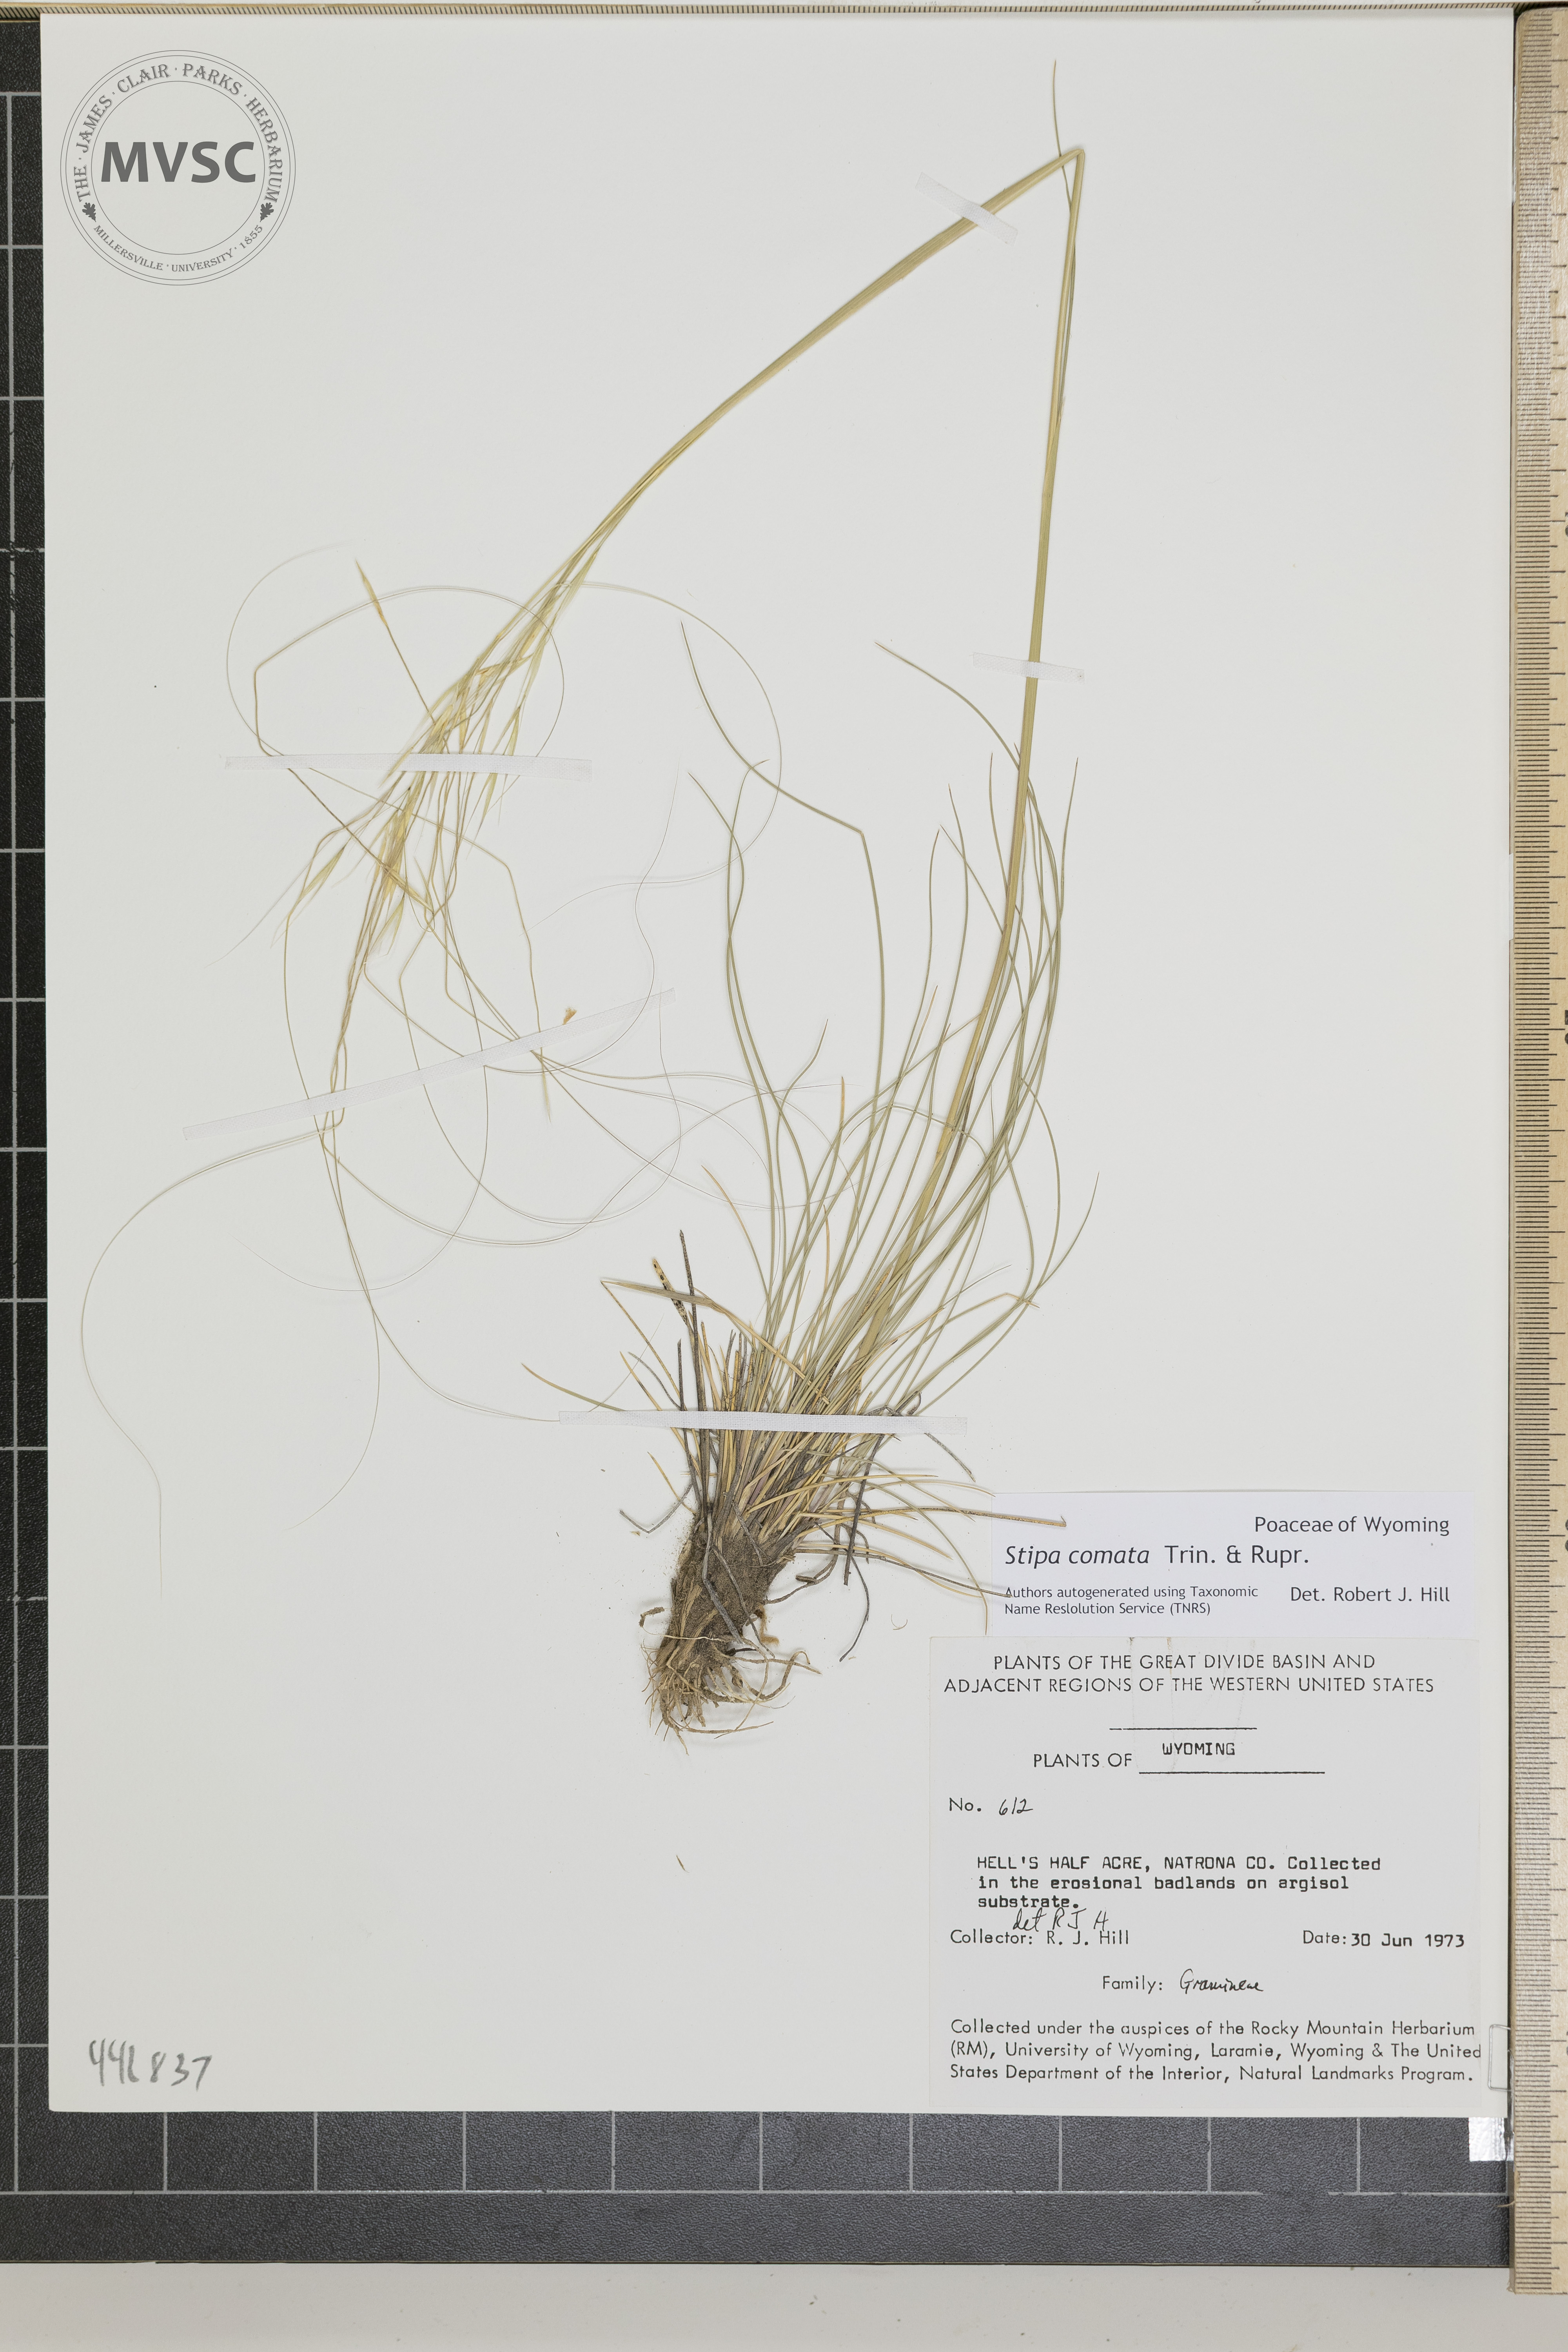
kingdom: Plantae
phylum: Tracheophyta
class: Liliopsida
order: Poales
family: Poaceae
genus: Hesperostipa
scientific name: Hesperostipa comata
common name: Needle-and-thread grass
